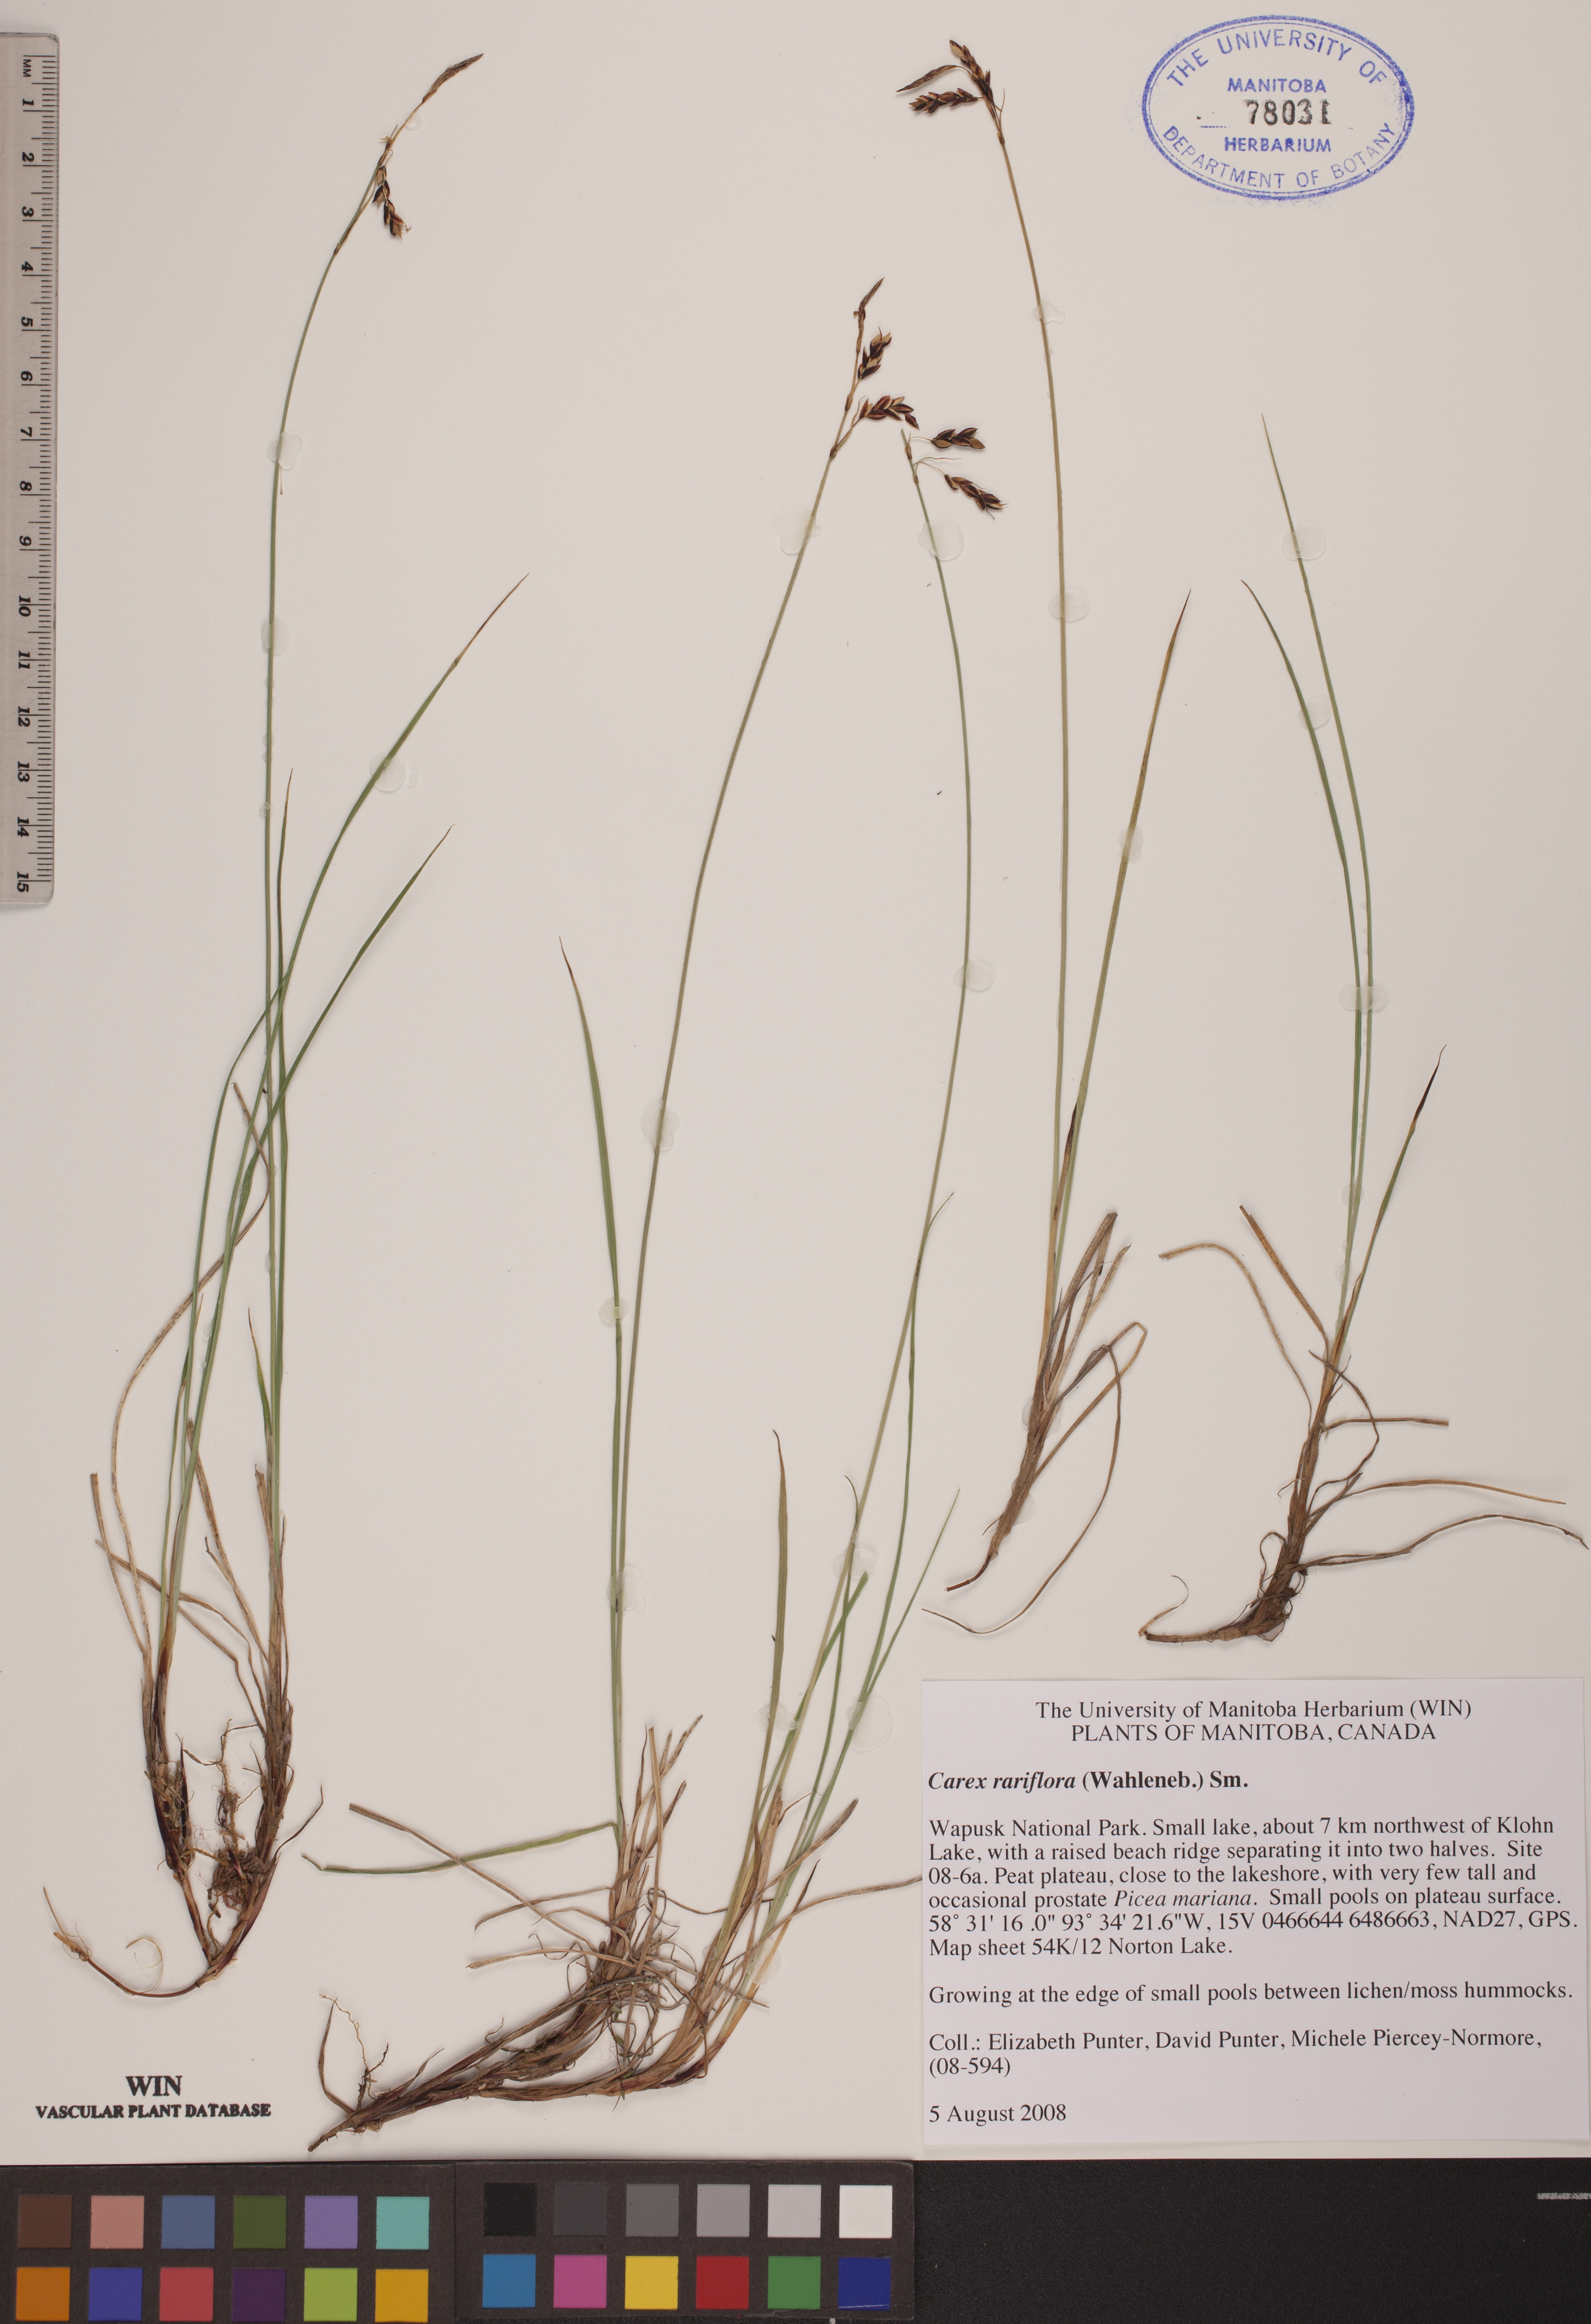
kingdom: Plantae
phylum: Tracheophyta
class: Liliopsida
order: Poales
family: Cyperaceae
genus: Carex
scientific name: Carex rariflora
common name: Loose-flowered alpine sedge
